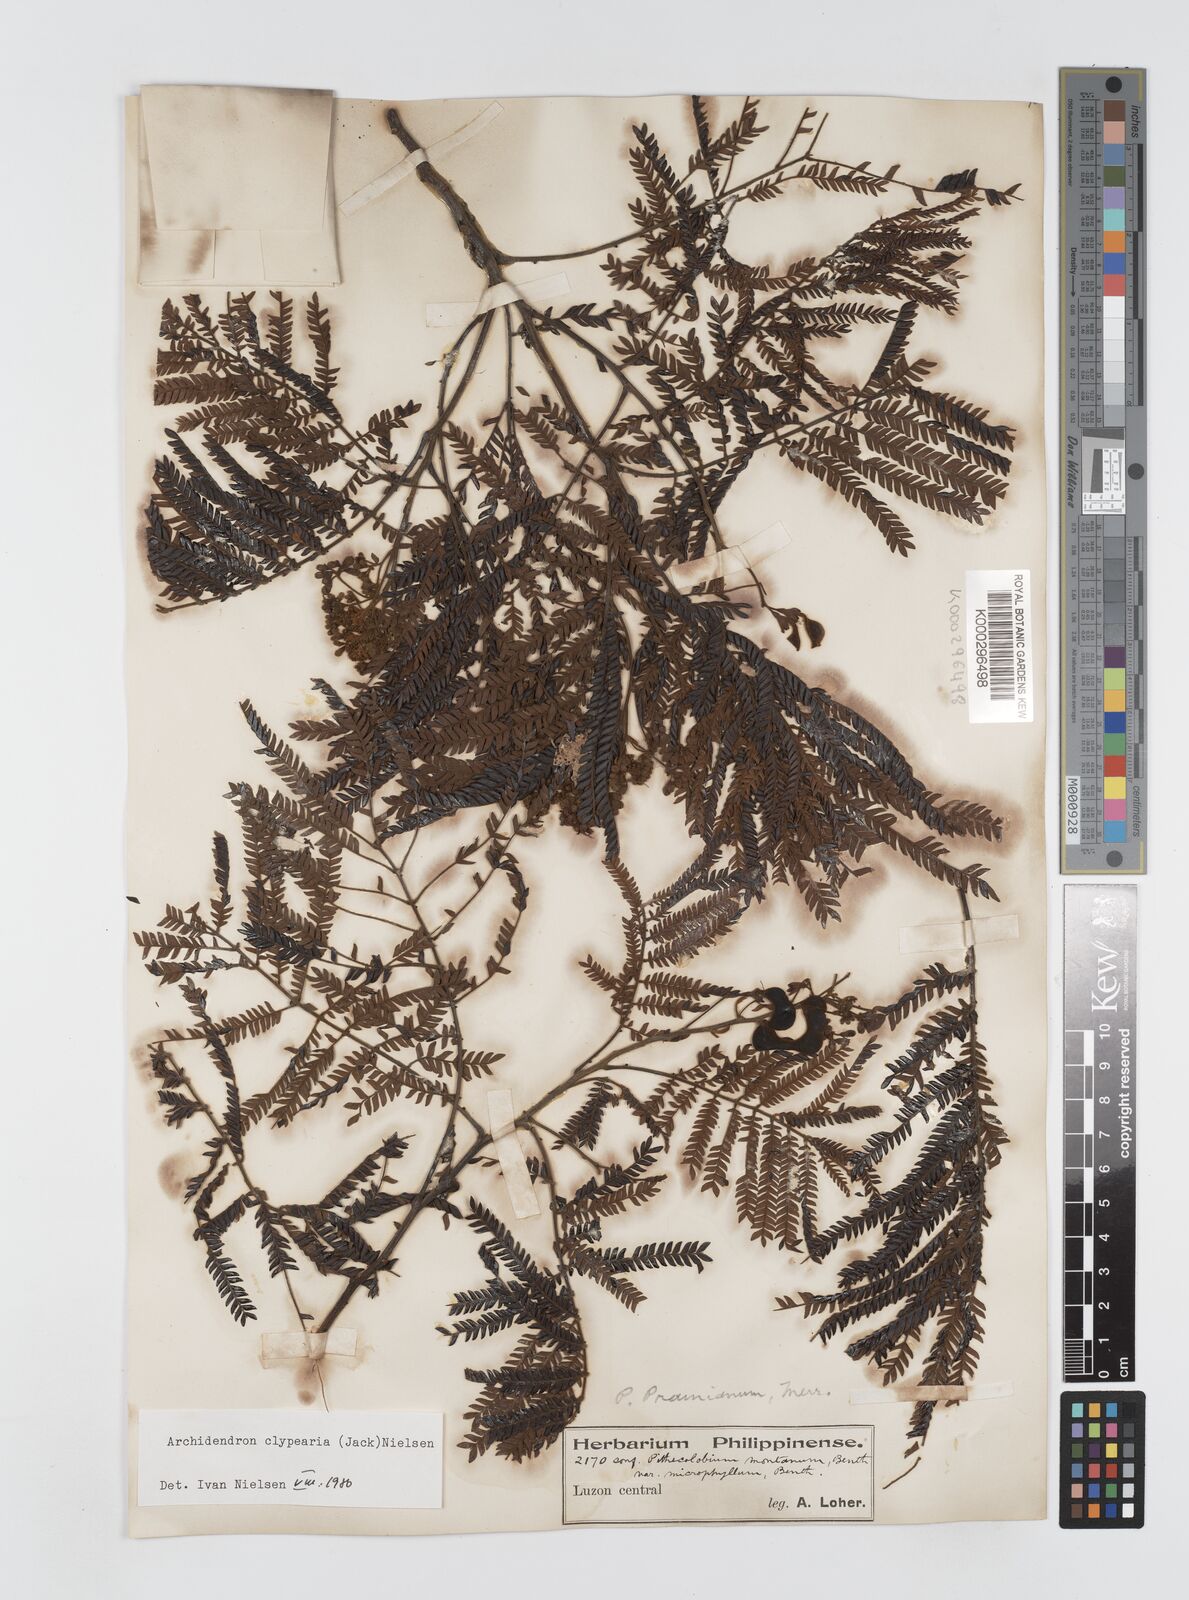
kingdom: Plantae
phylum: Tracheophyta
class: Magnoliopsida
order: Fabales
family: Fabaceae
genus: Archidendron
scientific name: Archidendron clypearia
